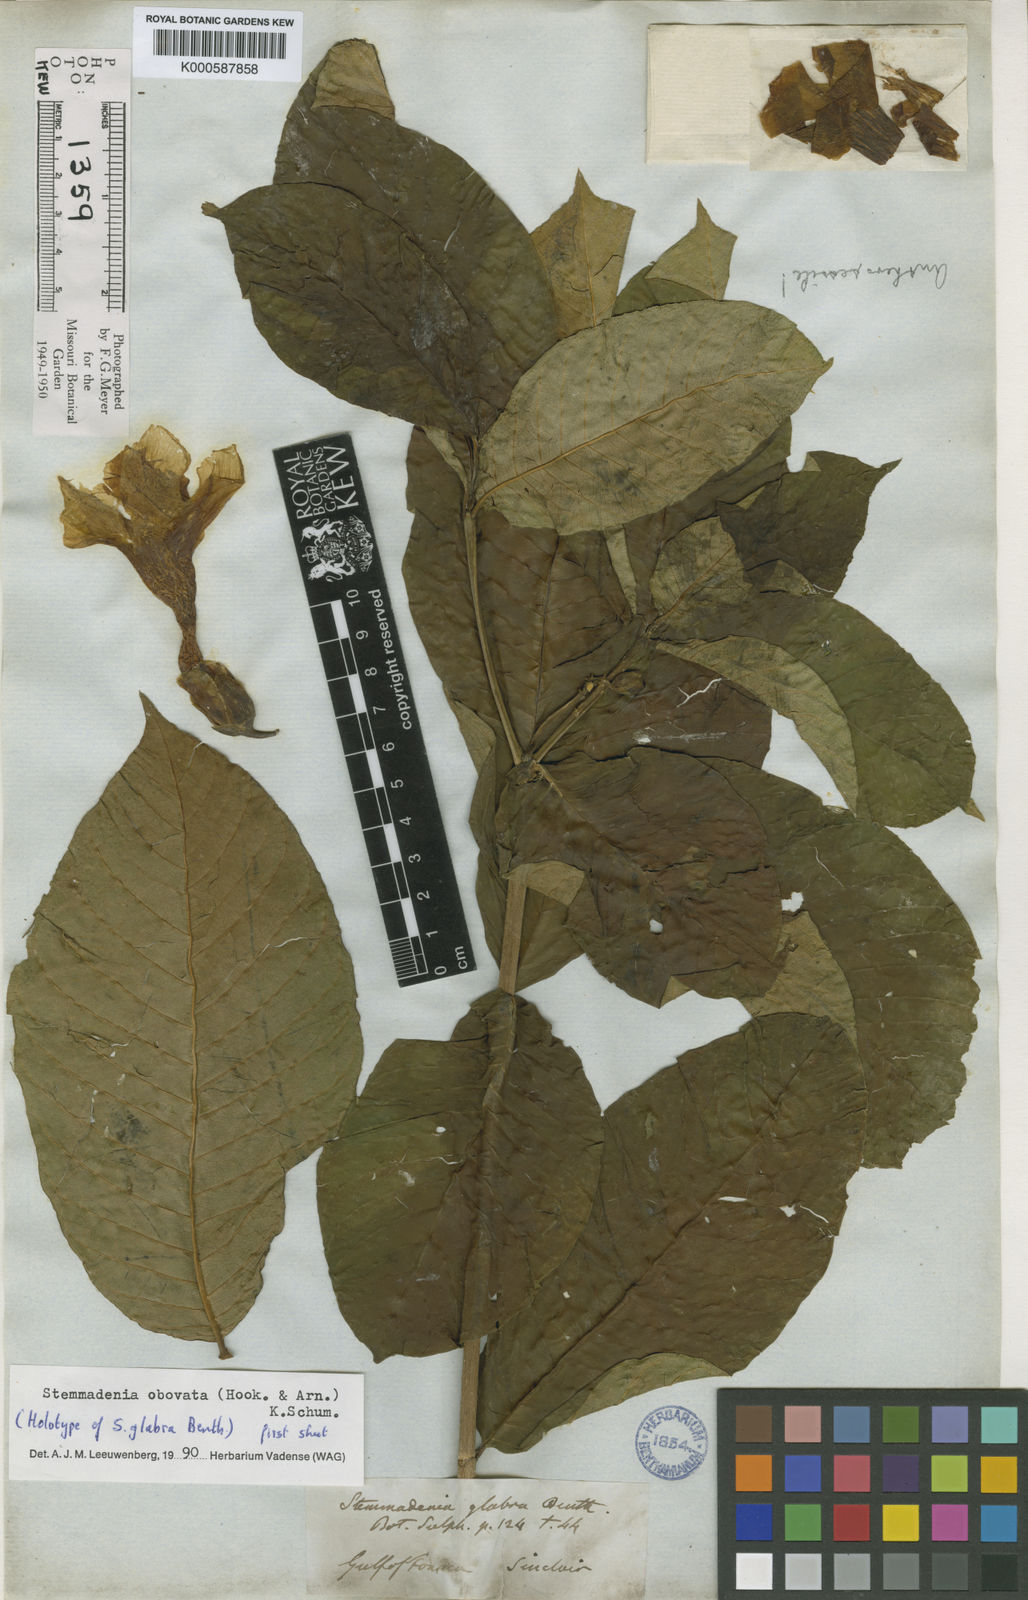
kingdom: Plantae
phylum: Tracheophyta
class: Magnoliopsida
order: Gentianales
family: Apocynaceae
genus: Tabernaemontana
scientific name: Tabernaemontana glabra
